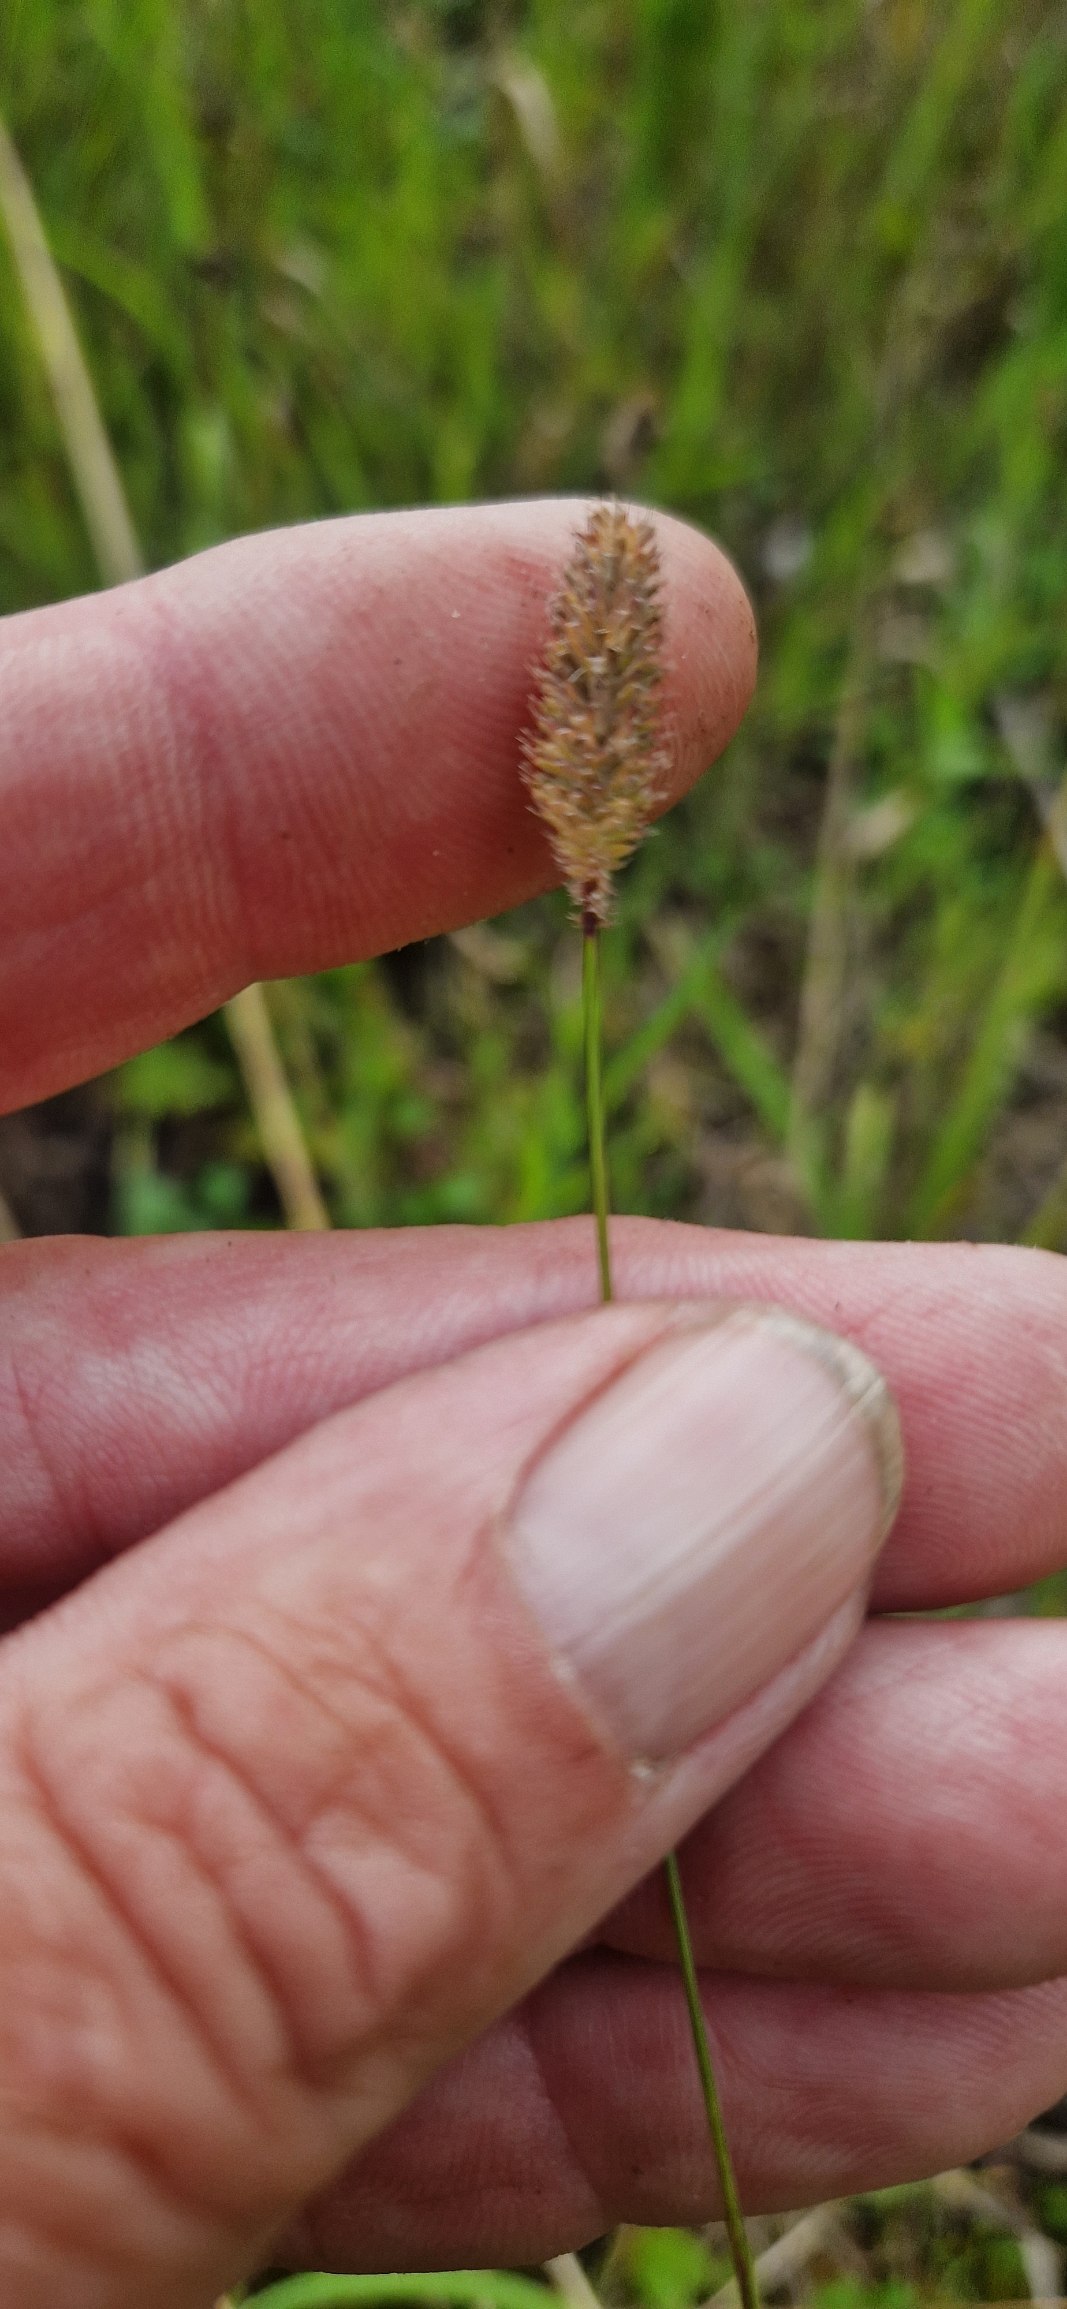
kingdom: Plantae
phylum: Tracheophyta
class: Liliopsida
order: Poales
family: Poaceae
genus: Phleum
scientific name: Phleum pratense
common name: Knold-rottehale
